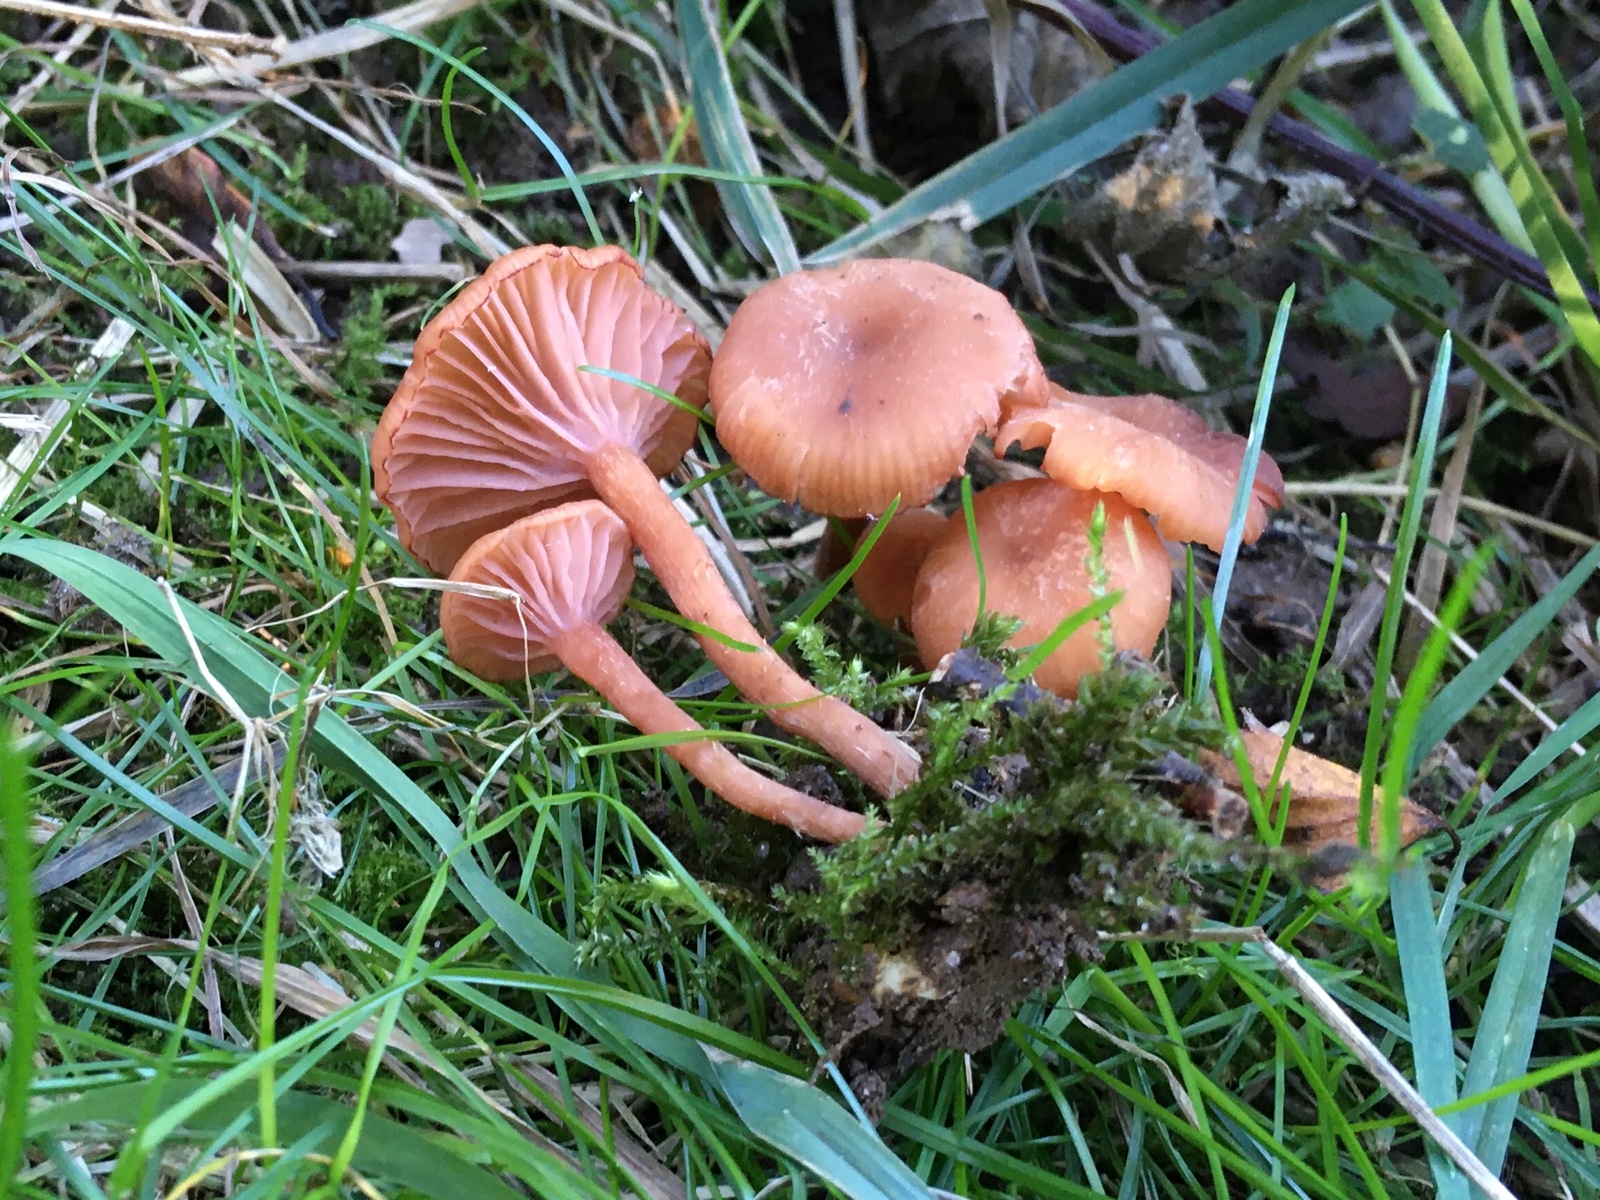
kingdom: Fungi
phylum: Basidiomycota
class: Agaricomycetes
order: Agaricales
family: Hydnangiaceae
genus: Laccaria
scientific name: Laccaria laccata
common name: rød ametysthat
